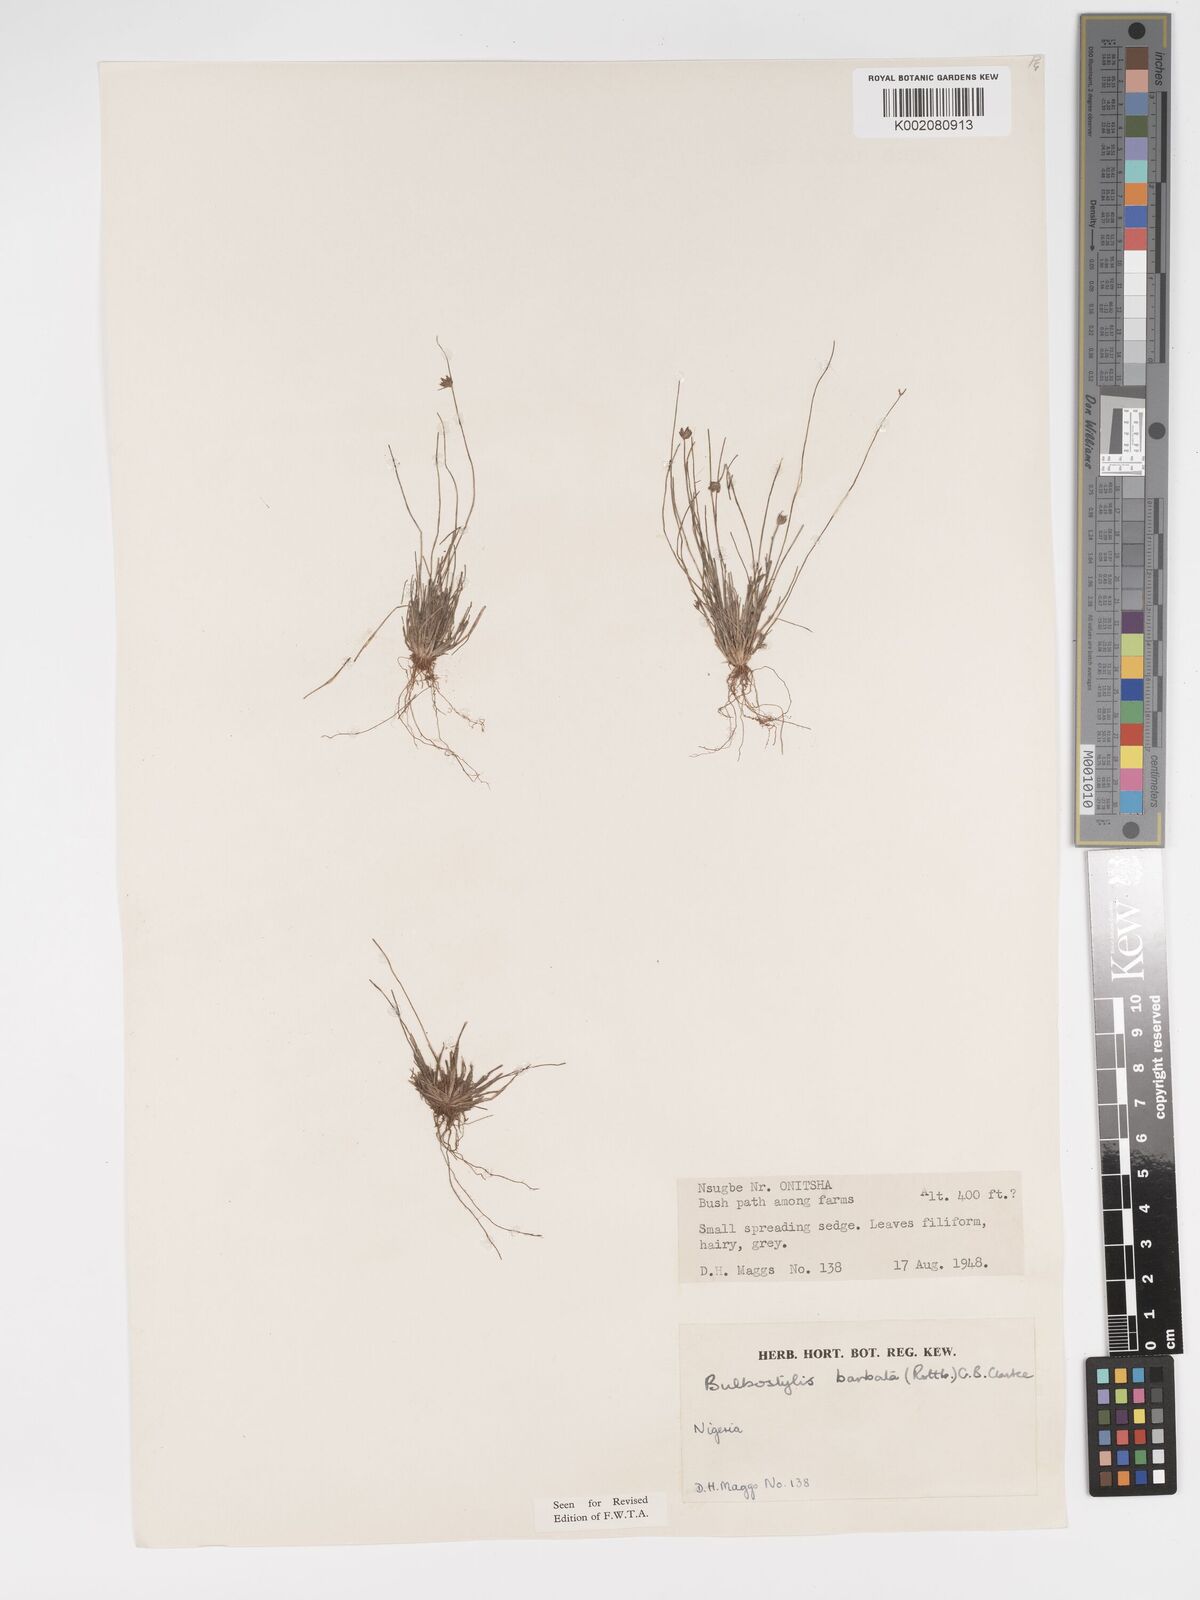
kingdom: Plantae
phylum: Tracheophyta
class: Liliopsida
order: Poales
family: Cyperaceae
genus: Bulbostylis
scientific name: Bulbostylis barbata
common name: Watergrass
